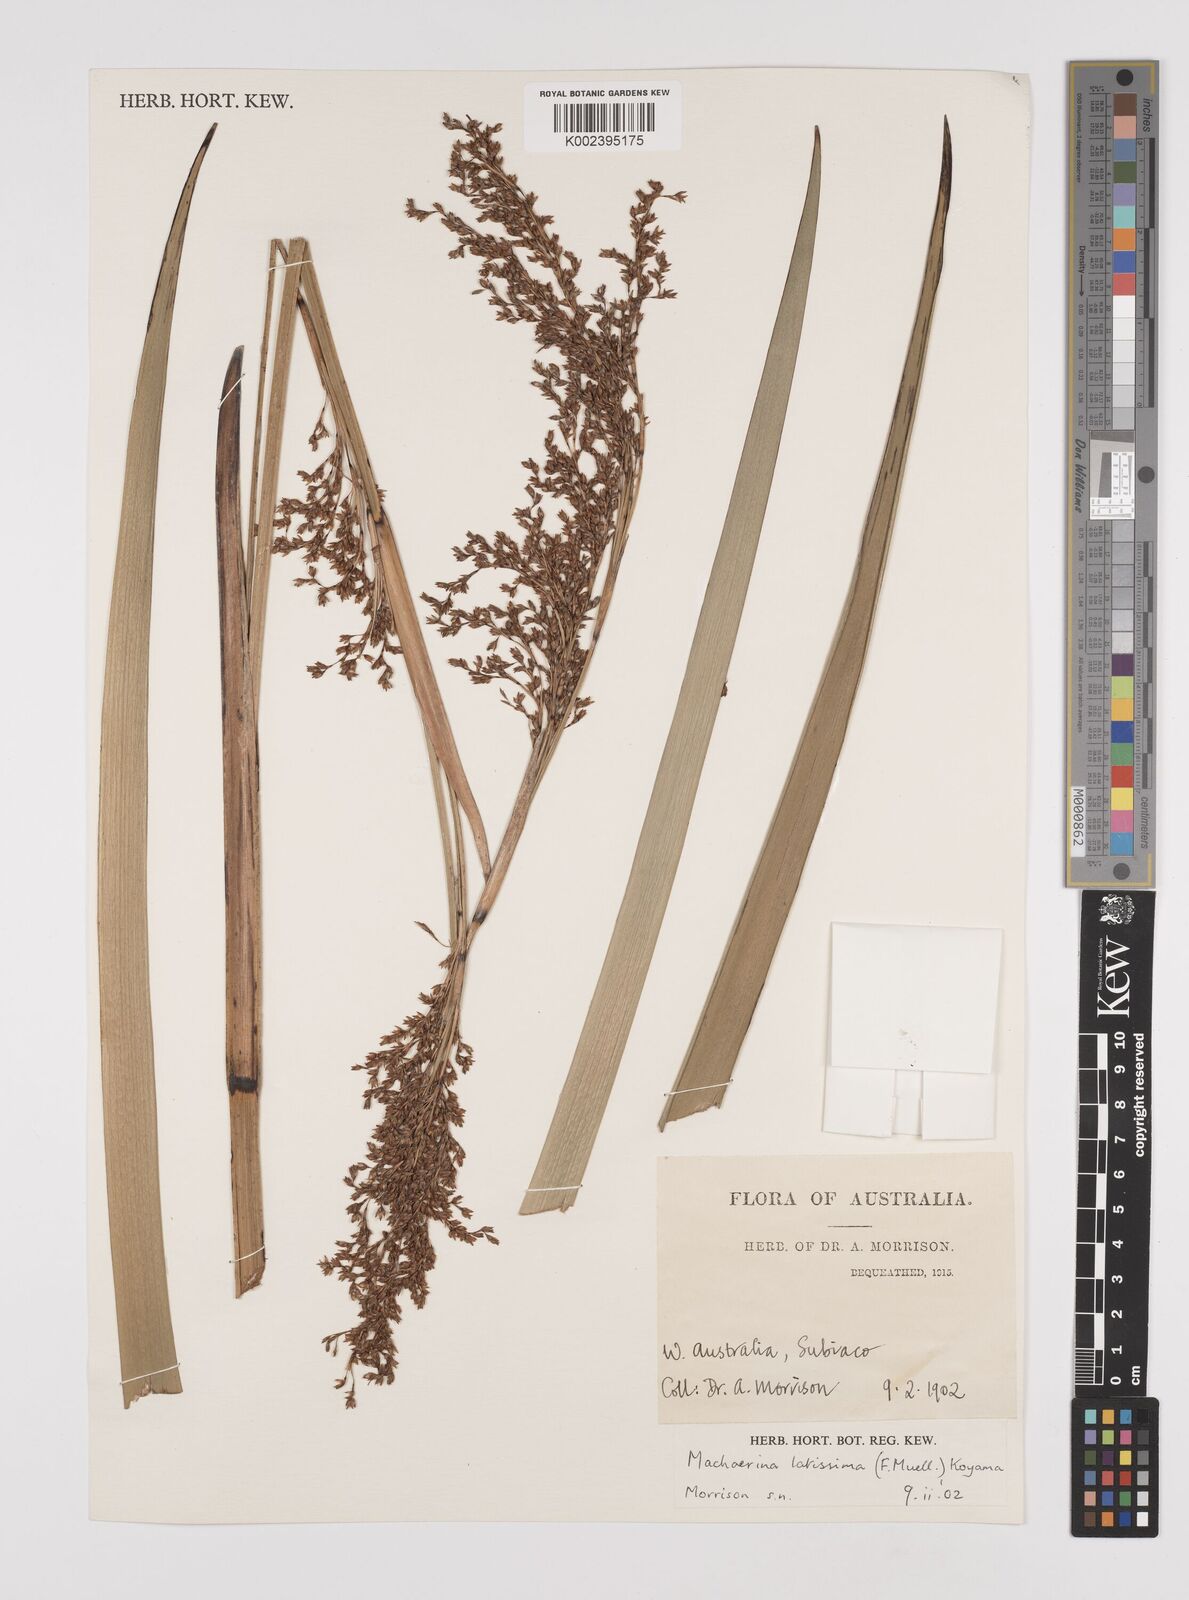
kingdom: Plantae
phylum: Tracheophyta
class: Liliopsida
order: Poales
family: Cyperaceae
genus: Machaerina
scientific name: Machaerina preissii
